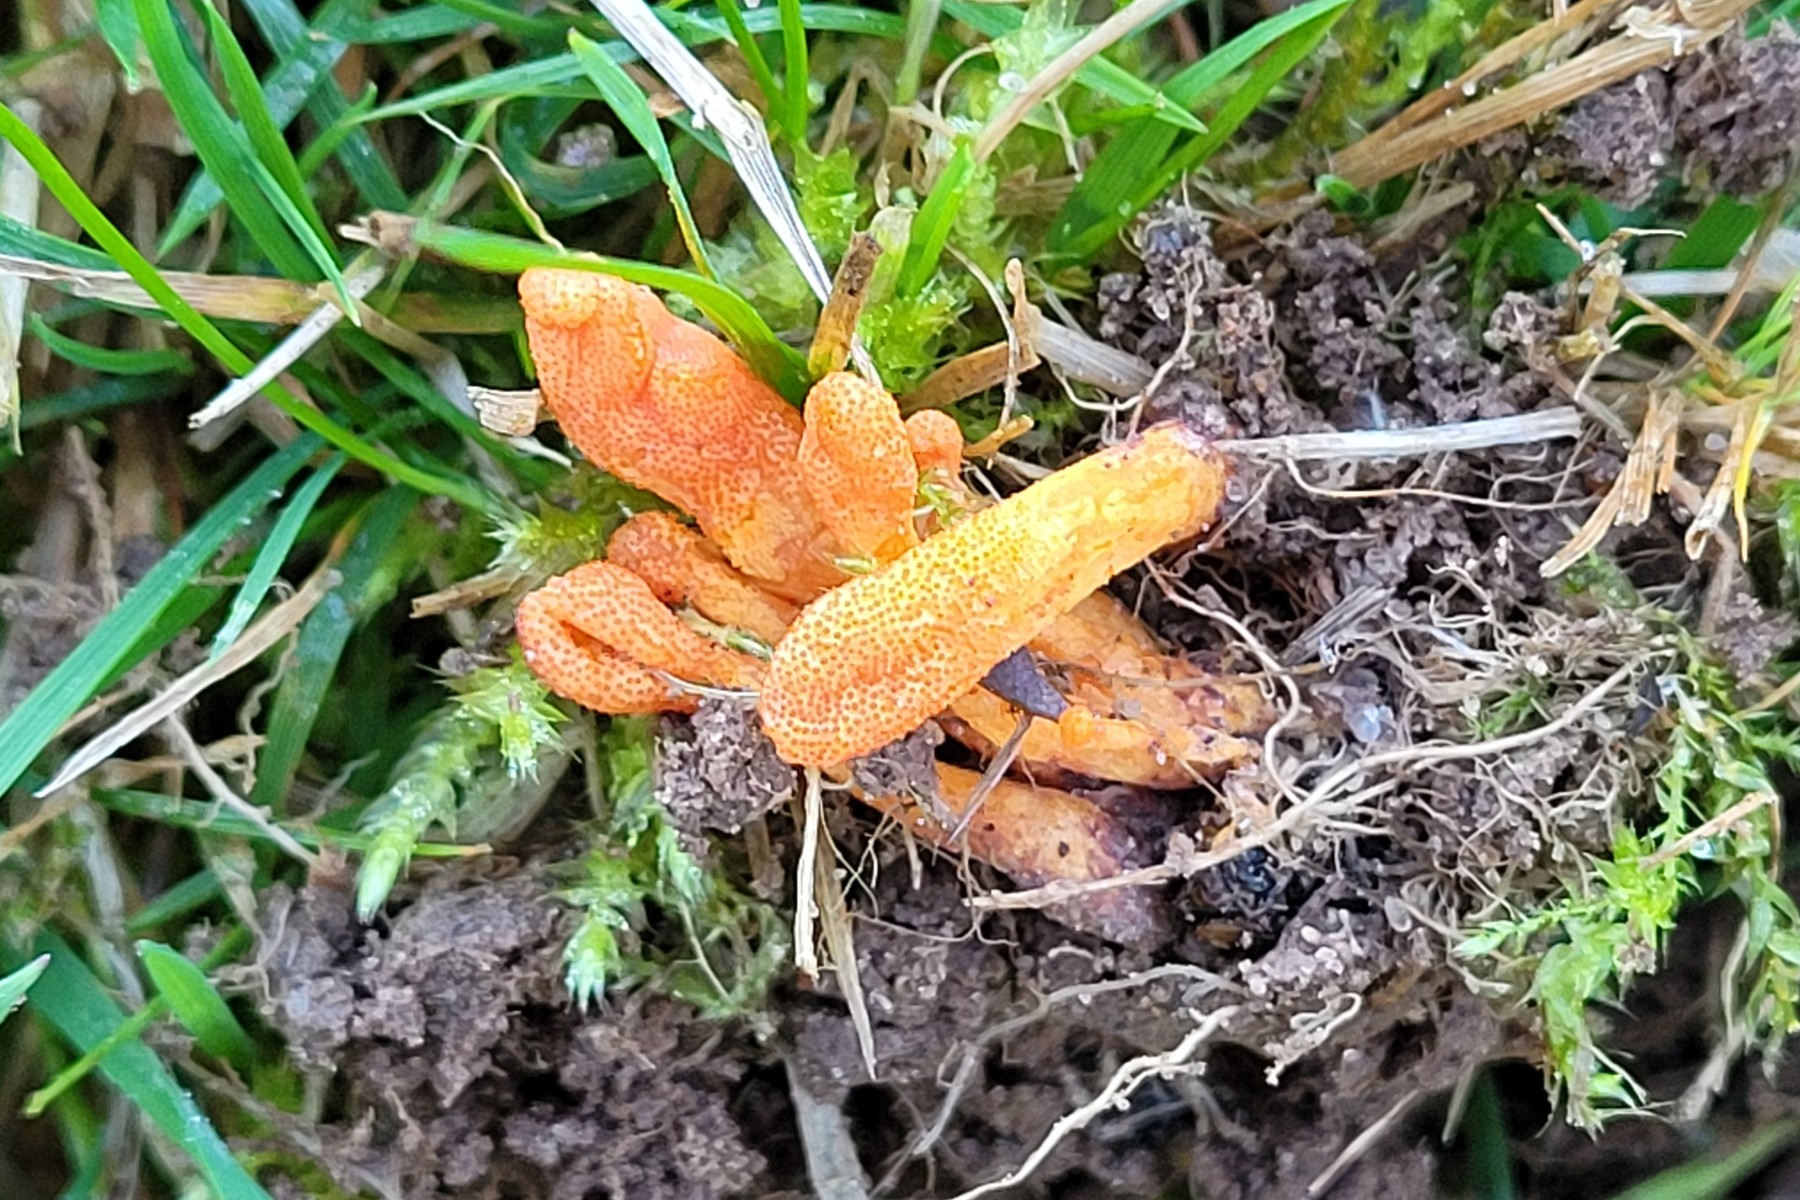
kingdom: Fungi
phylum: Ascomycota
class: Sordariomycetes
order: Hypocreales
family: Cordycipitaceae
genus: Cordyceps
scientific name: Cordyceps militaris
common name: puppe-snyltekølle
